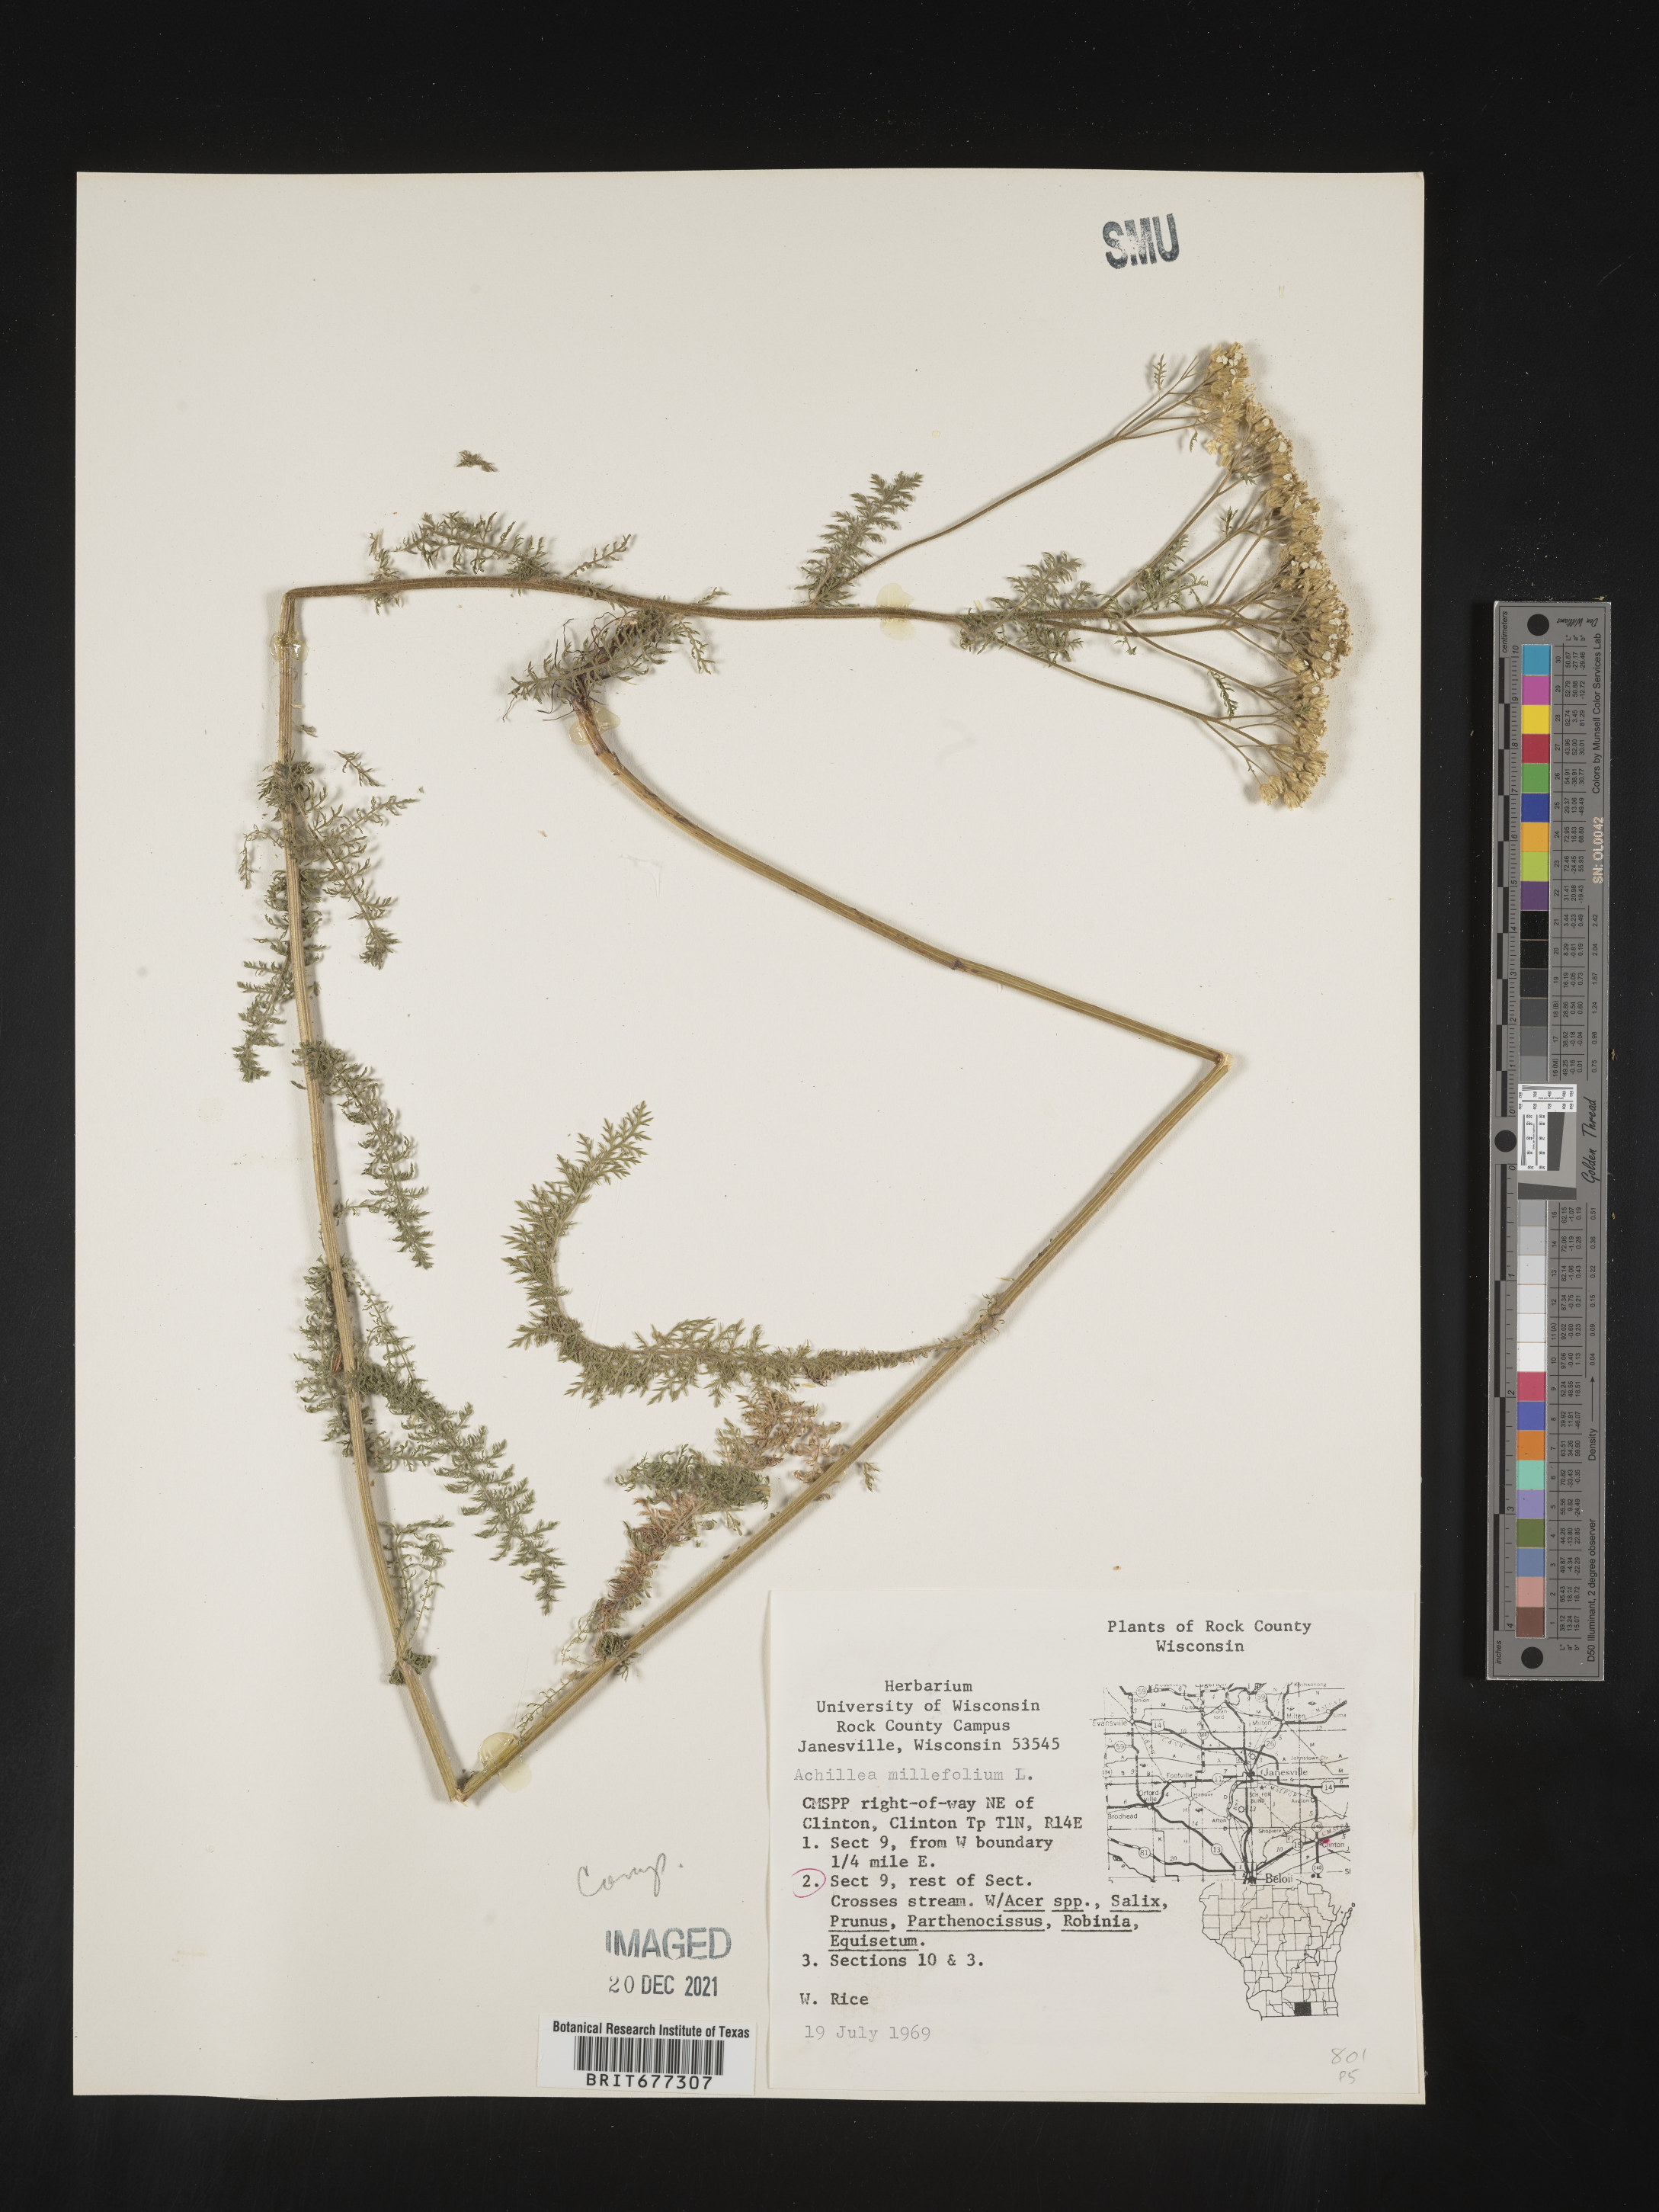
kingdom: Plantae
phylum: Tracheophyta
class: Magnoliopsida
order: Asterales
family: Asteraceae
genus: Achillea
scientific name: Achillea millefolium
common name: Yarrow
